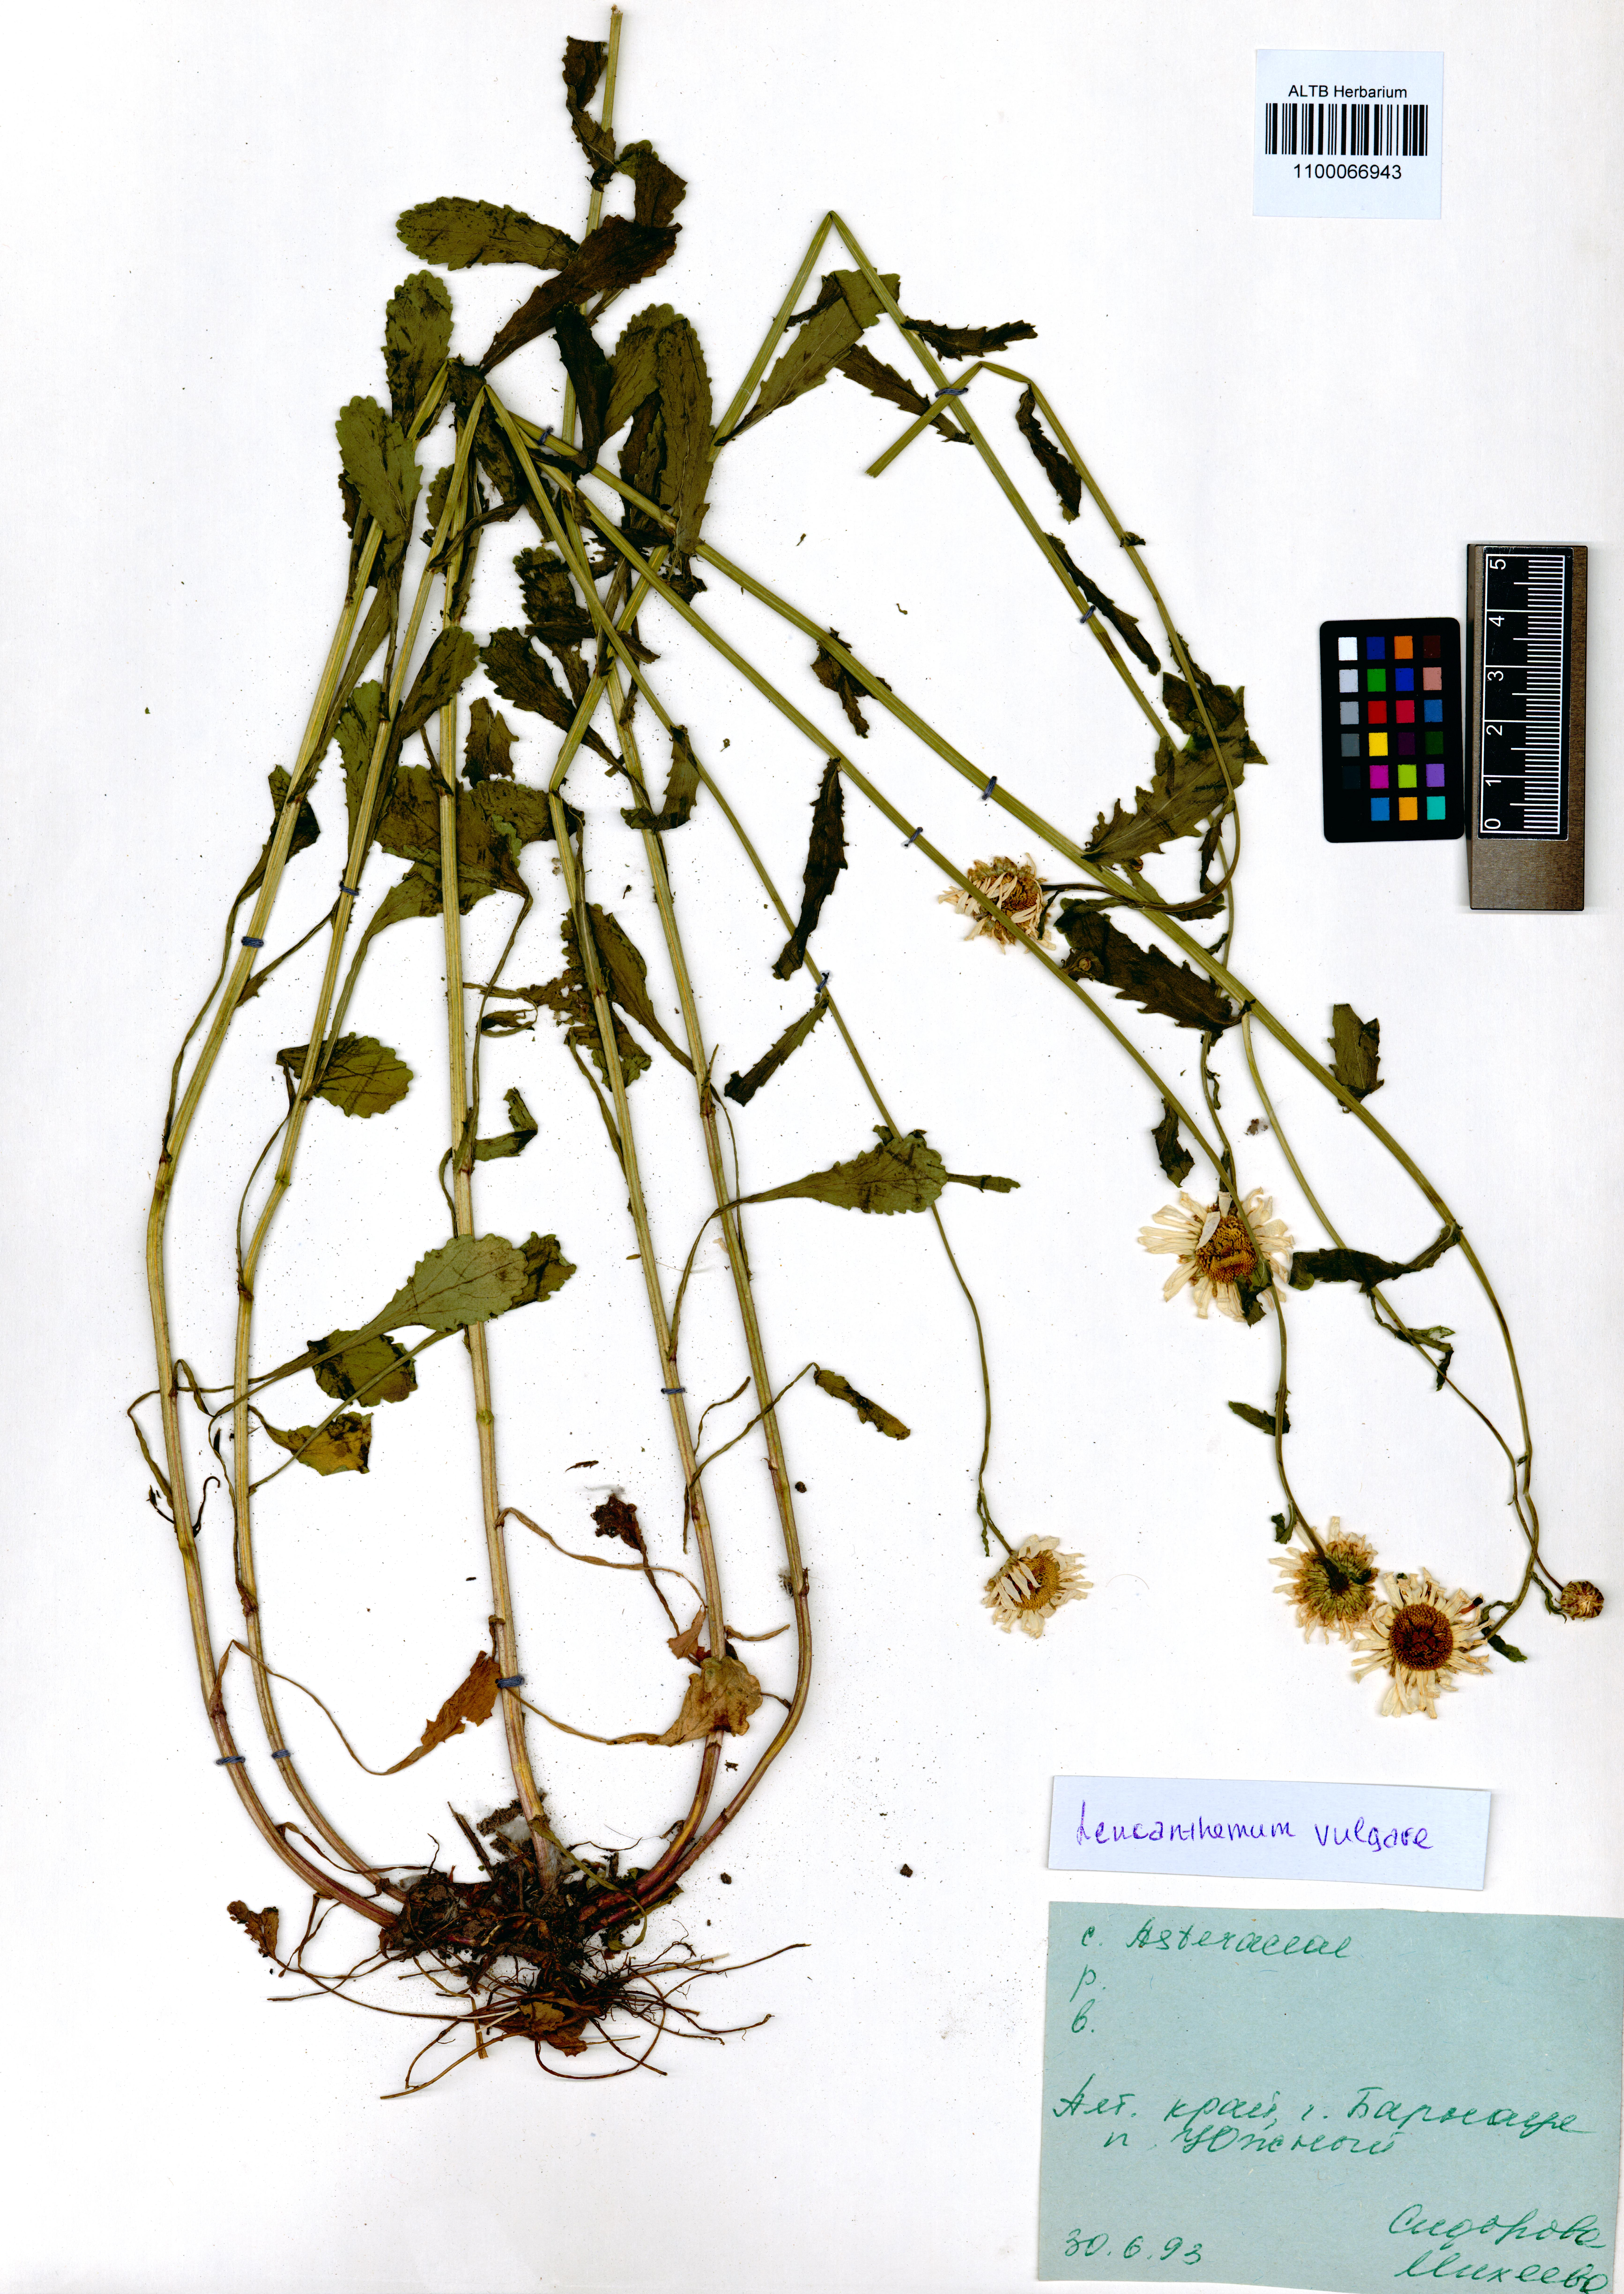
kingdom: Plantae
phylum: Tracheophyta
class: Magnoliopsida
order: Asterales
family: Asteraceae
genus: Leucanthemum
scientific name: Leucanthemum vulgare
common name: Oxeye daisy
